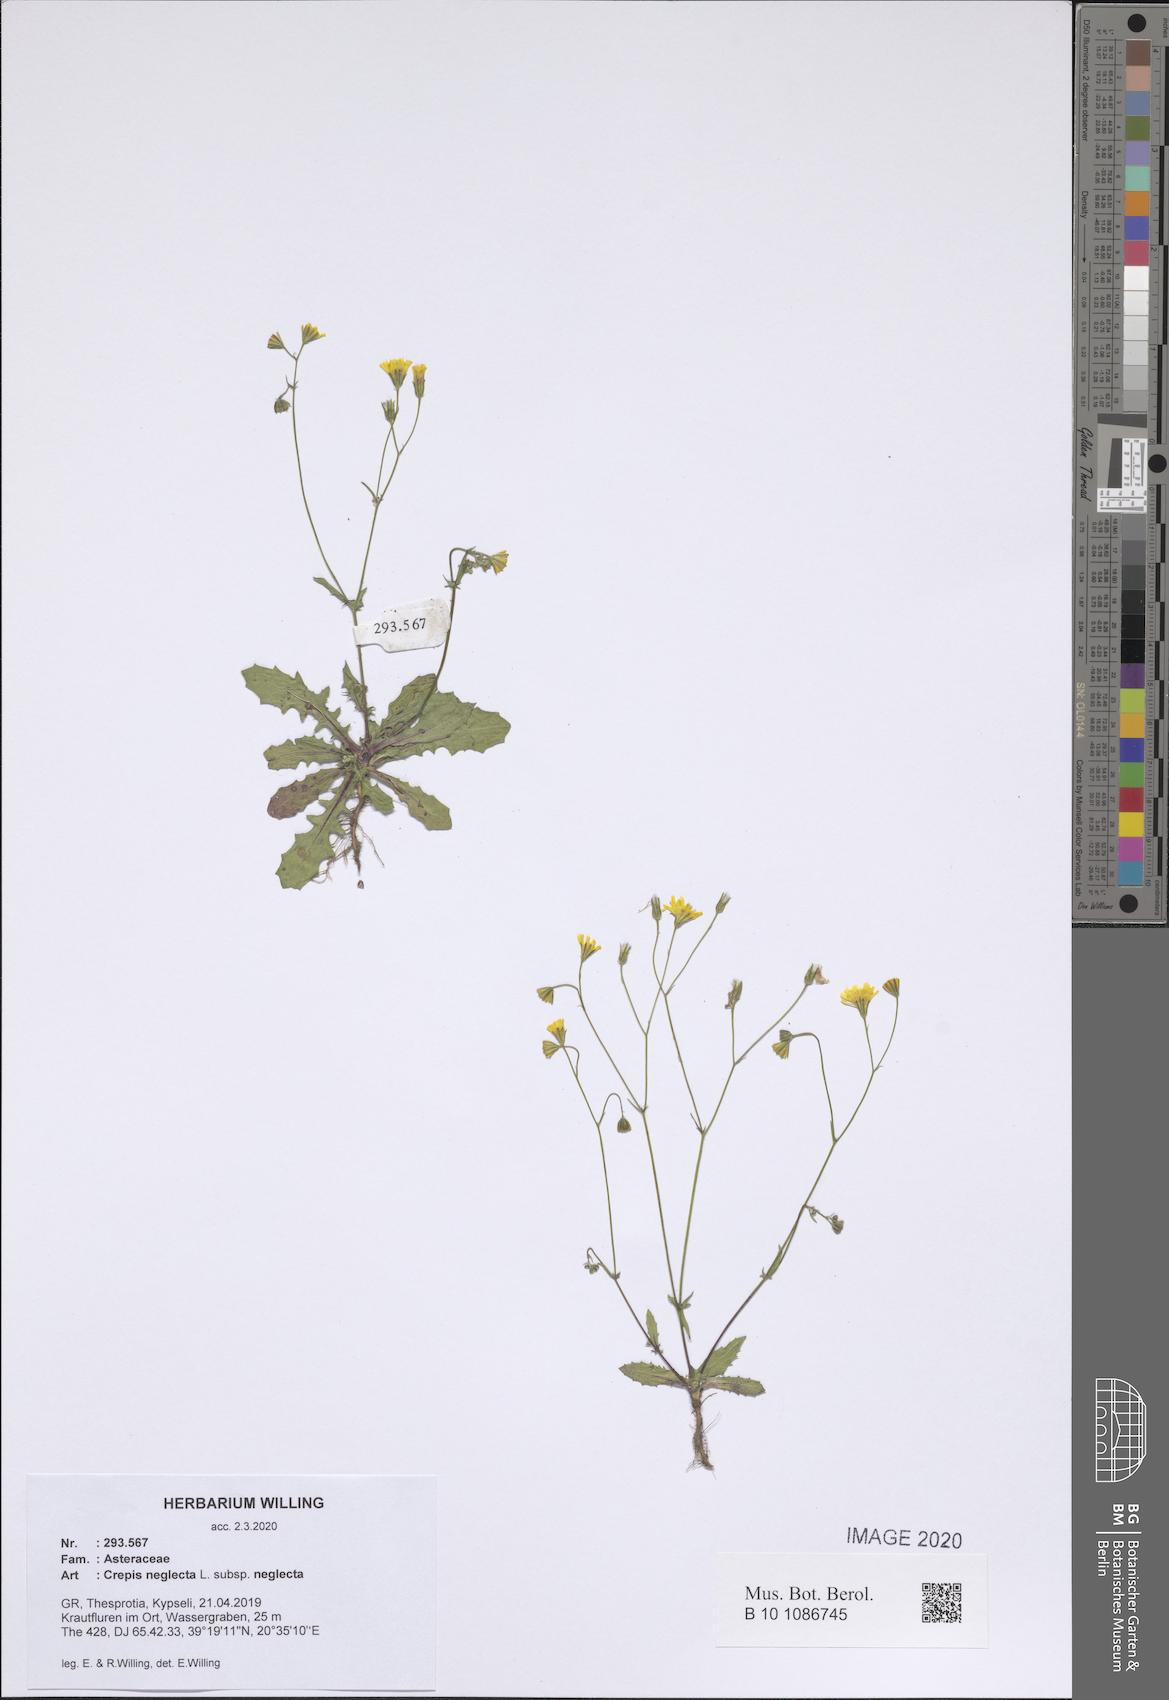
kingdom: Plantae
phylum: Tracheophyta
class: Magnoliopsida
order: Asterales
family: Asteraceae
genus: Crepis
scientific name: Crepis neglecta
